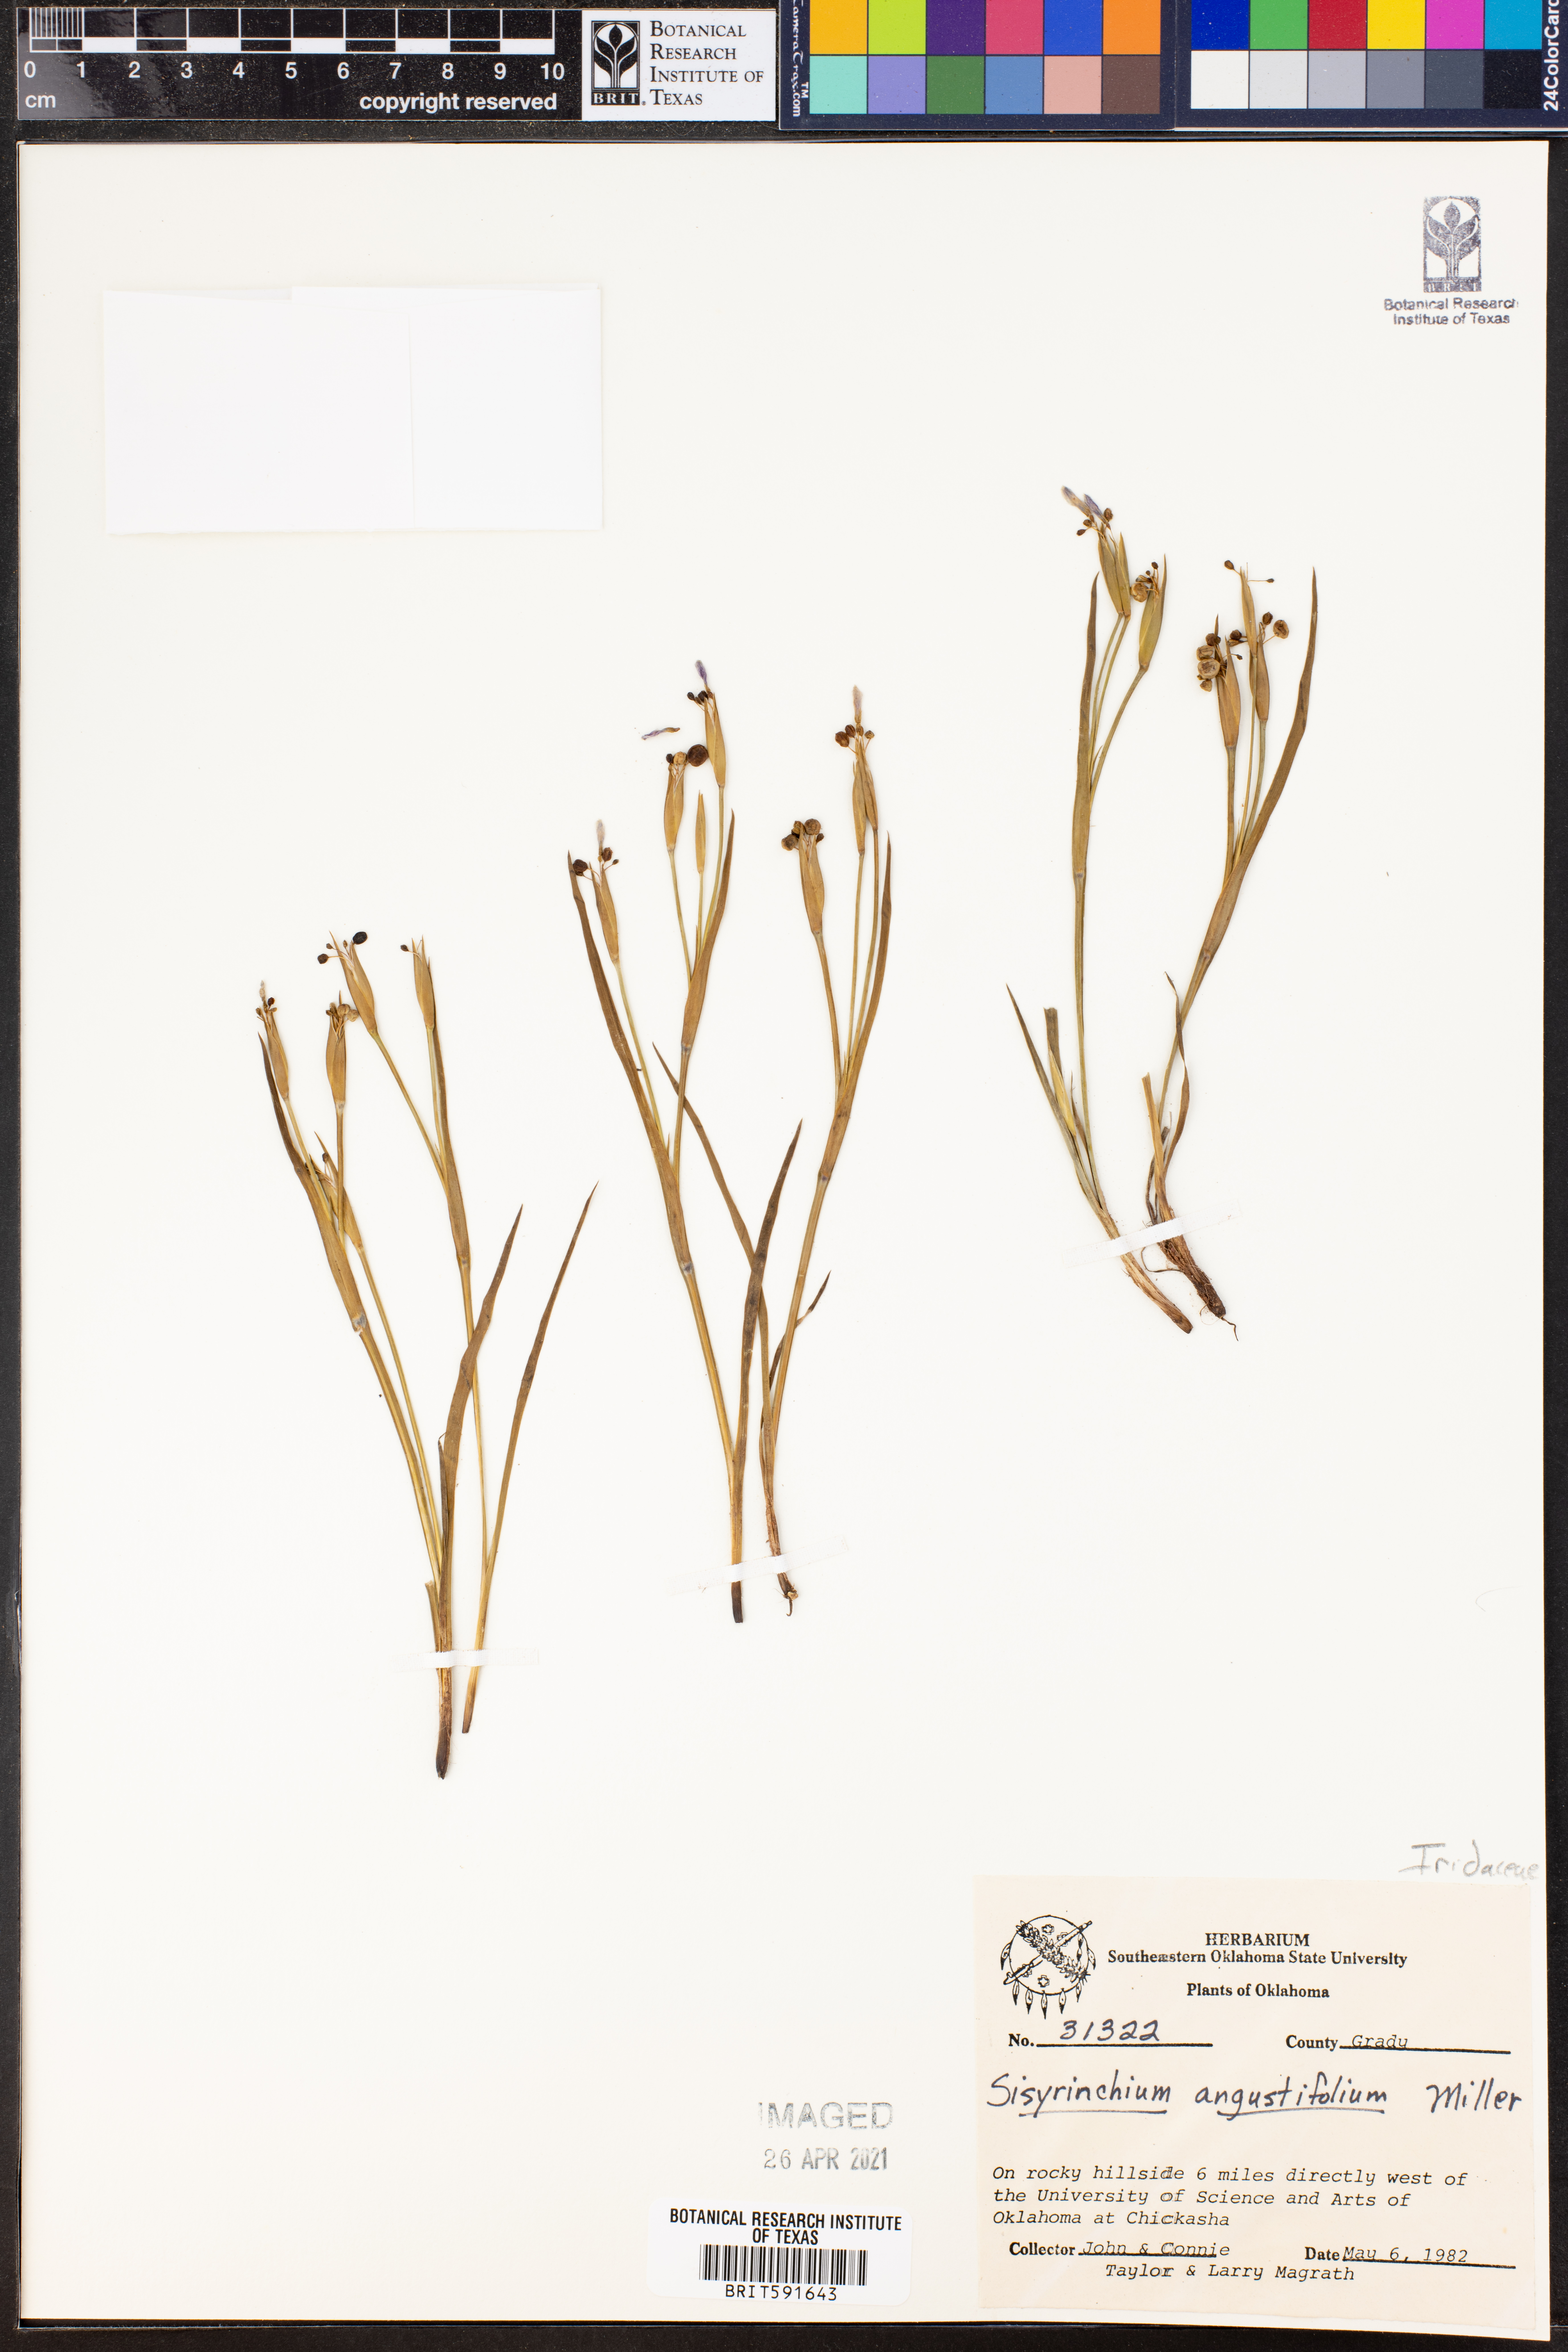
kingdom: Plantae
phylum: Tracheophyta
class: Liliopsida
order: Asparagales
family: Iridaceae
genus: Sisyrinchium
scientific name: Sisyrinchium angustifolium
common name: Narrow-leaf blue-eyed-grass
